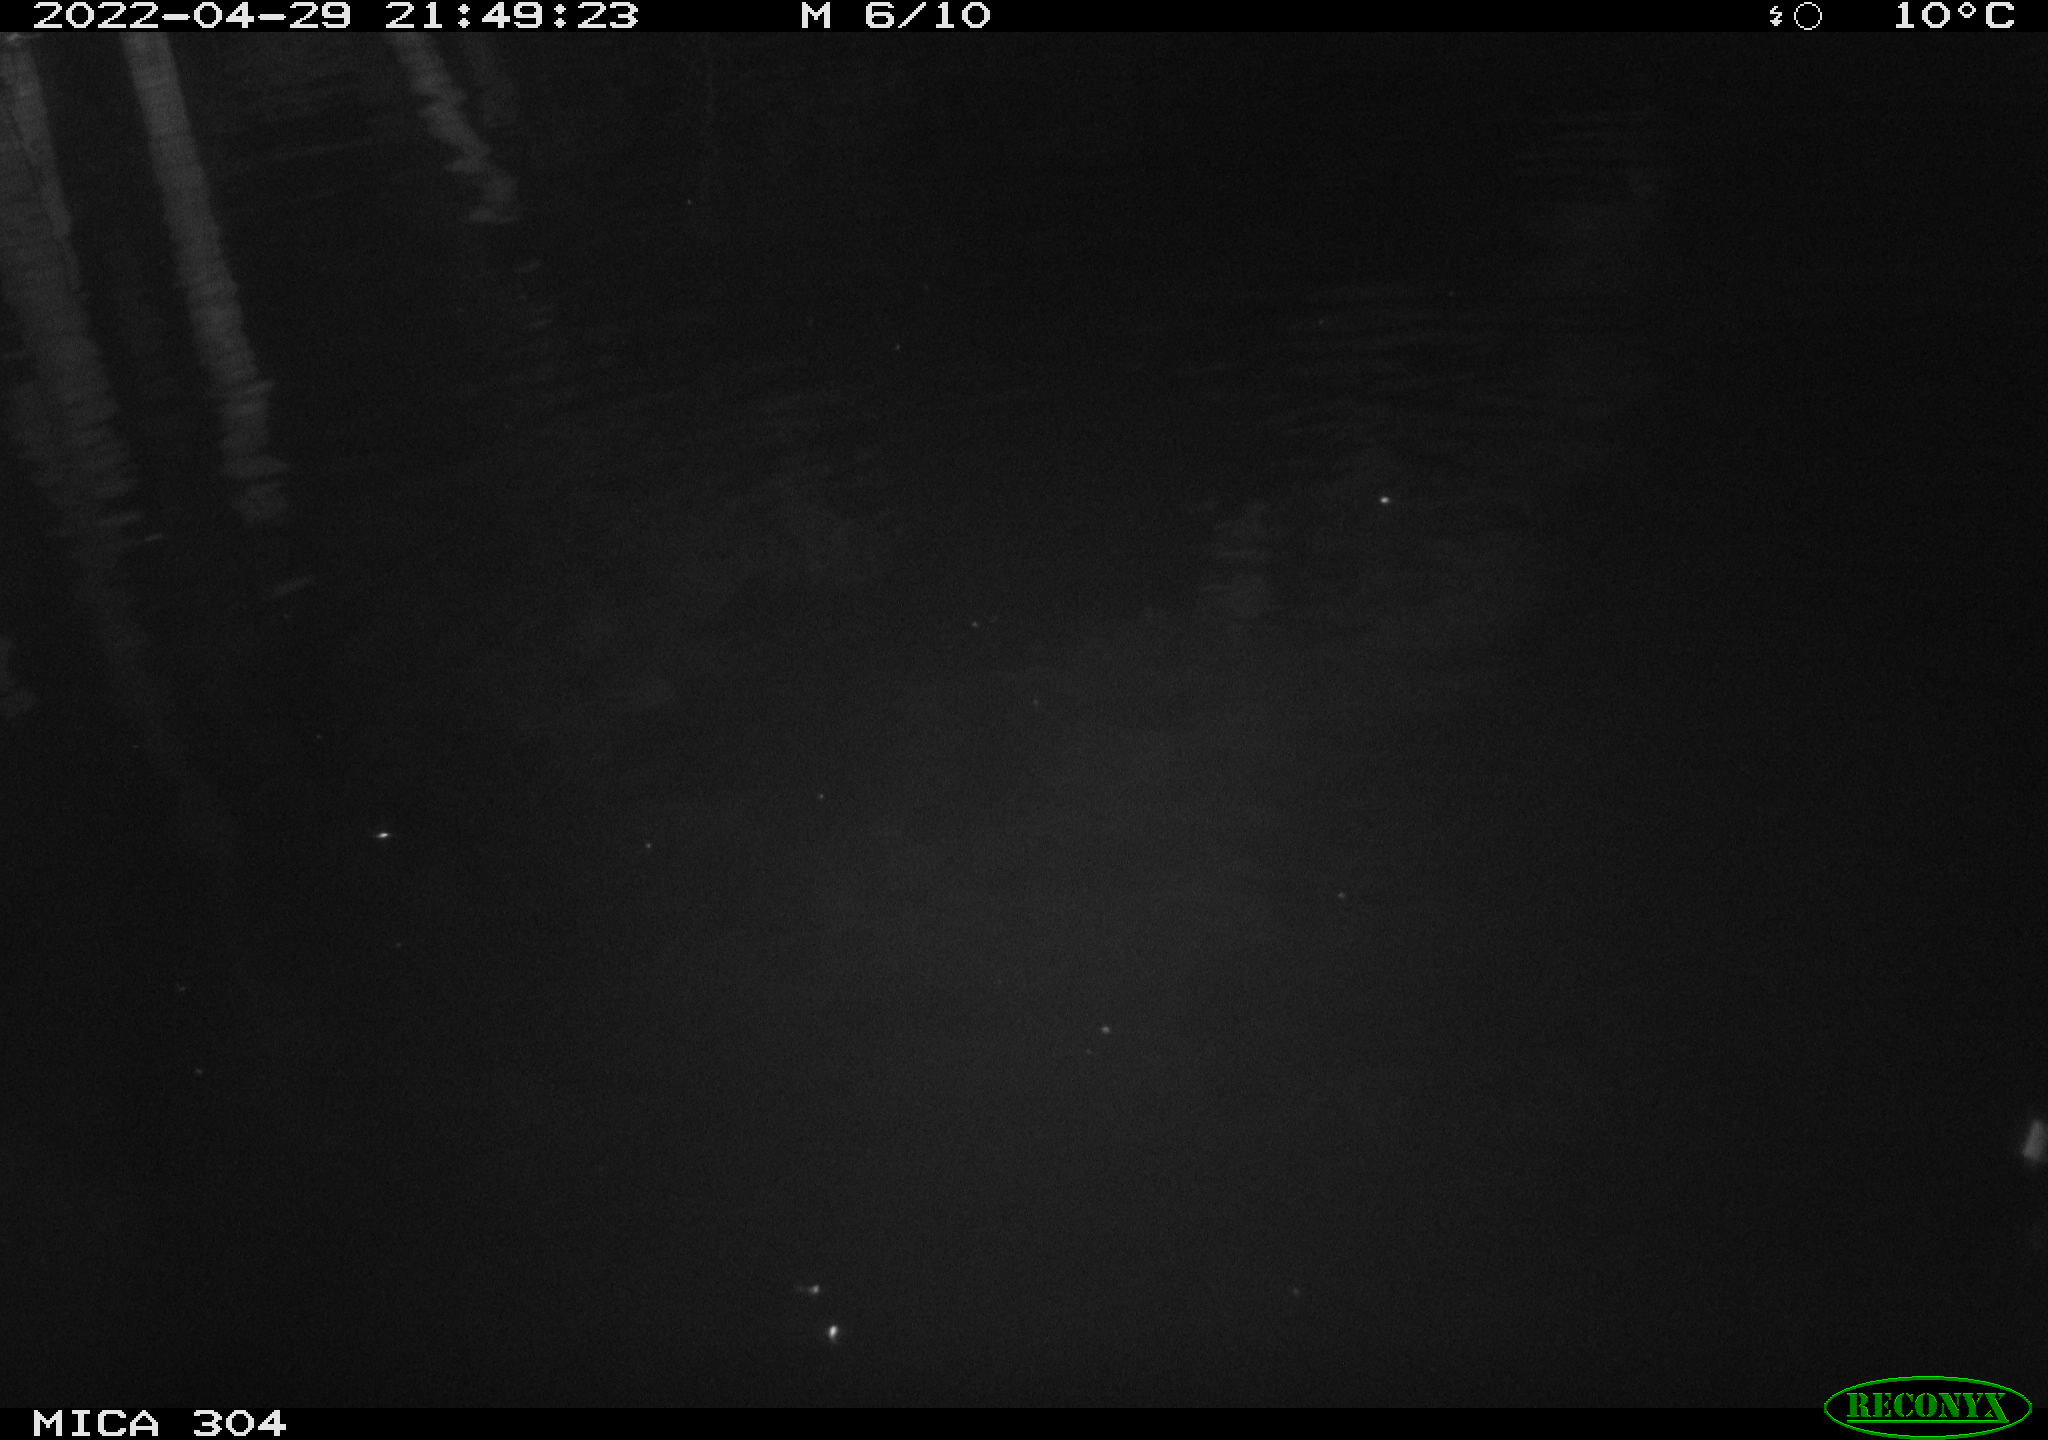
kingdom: Animalia
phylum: Chordata
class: Aves
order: Anseriformes
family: Anatidae
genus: Anas
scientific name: Anas platyrhynchos
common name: Mallard
